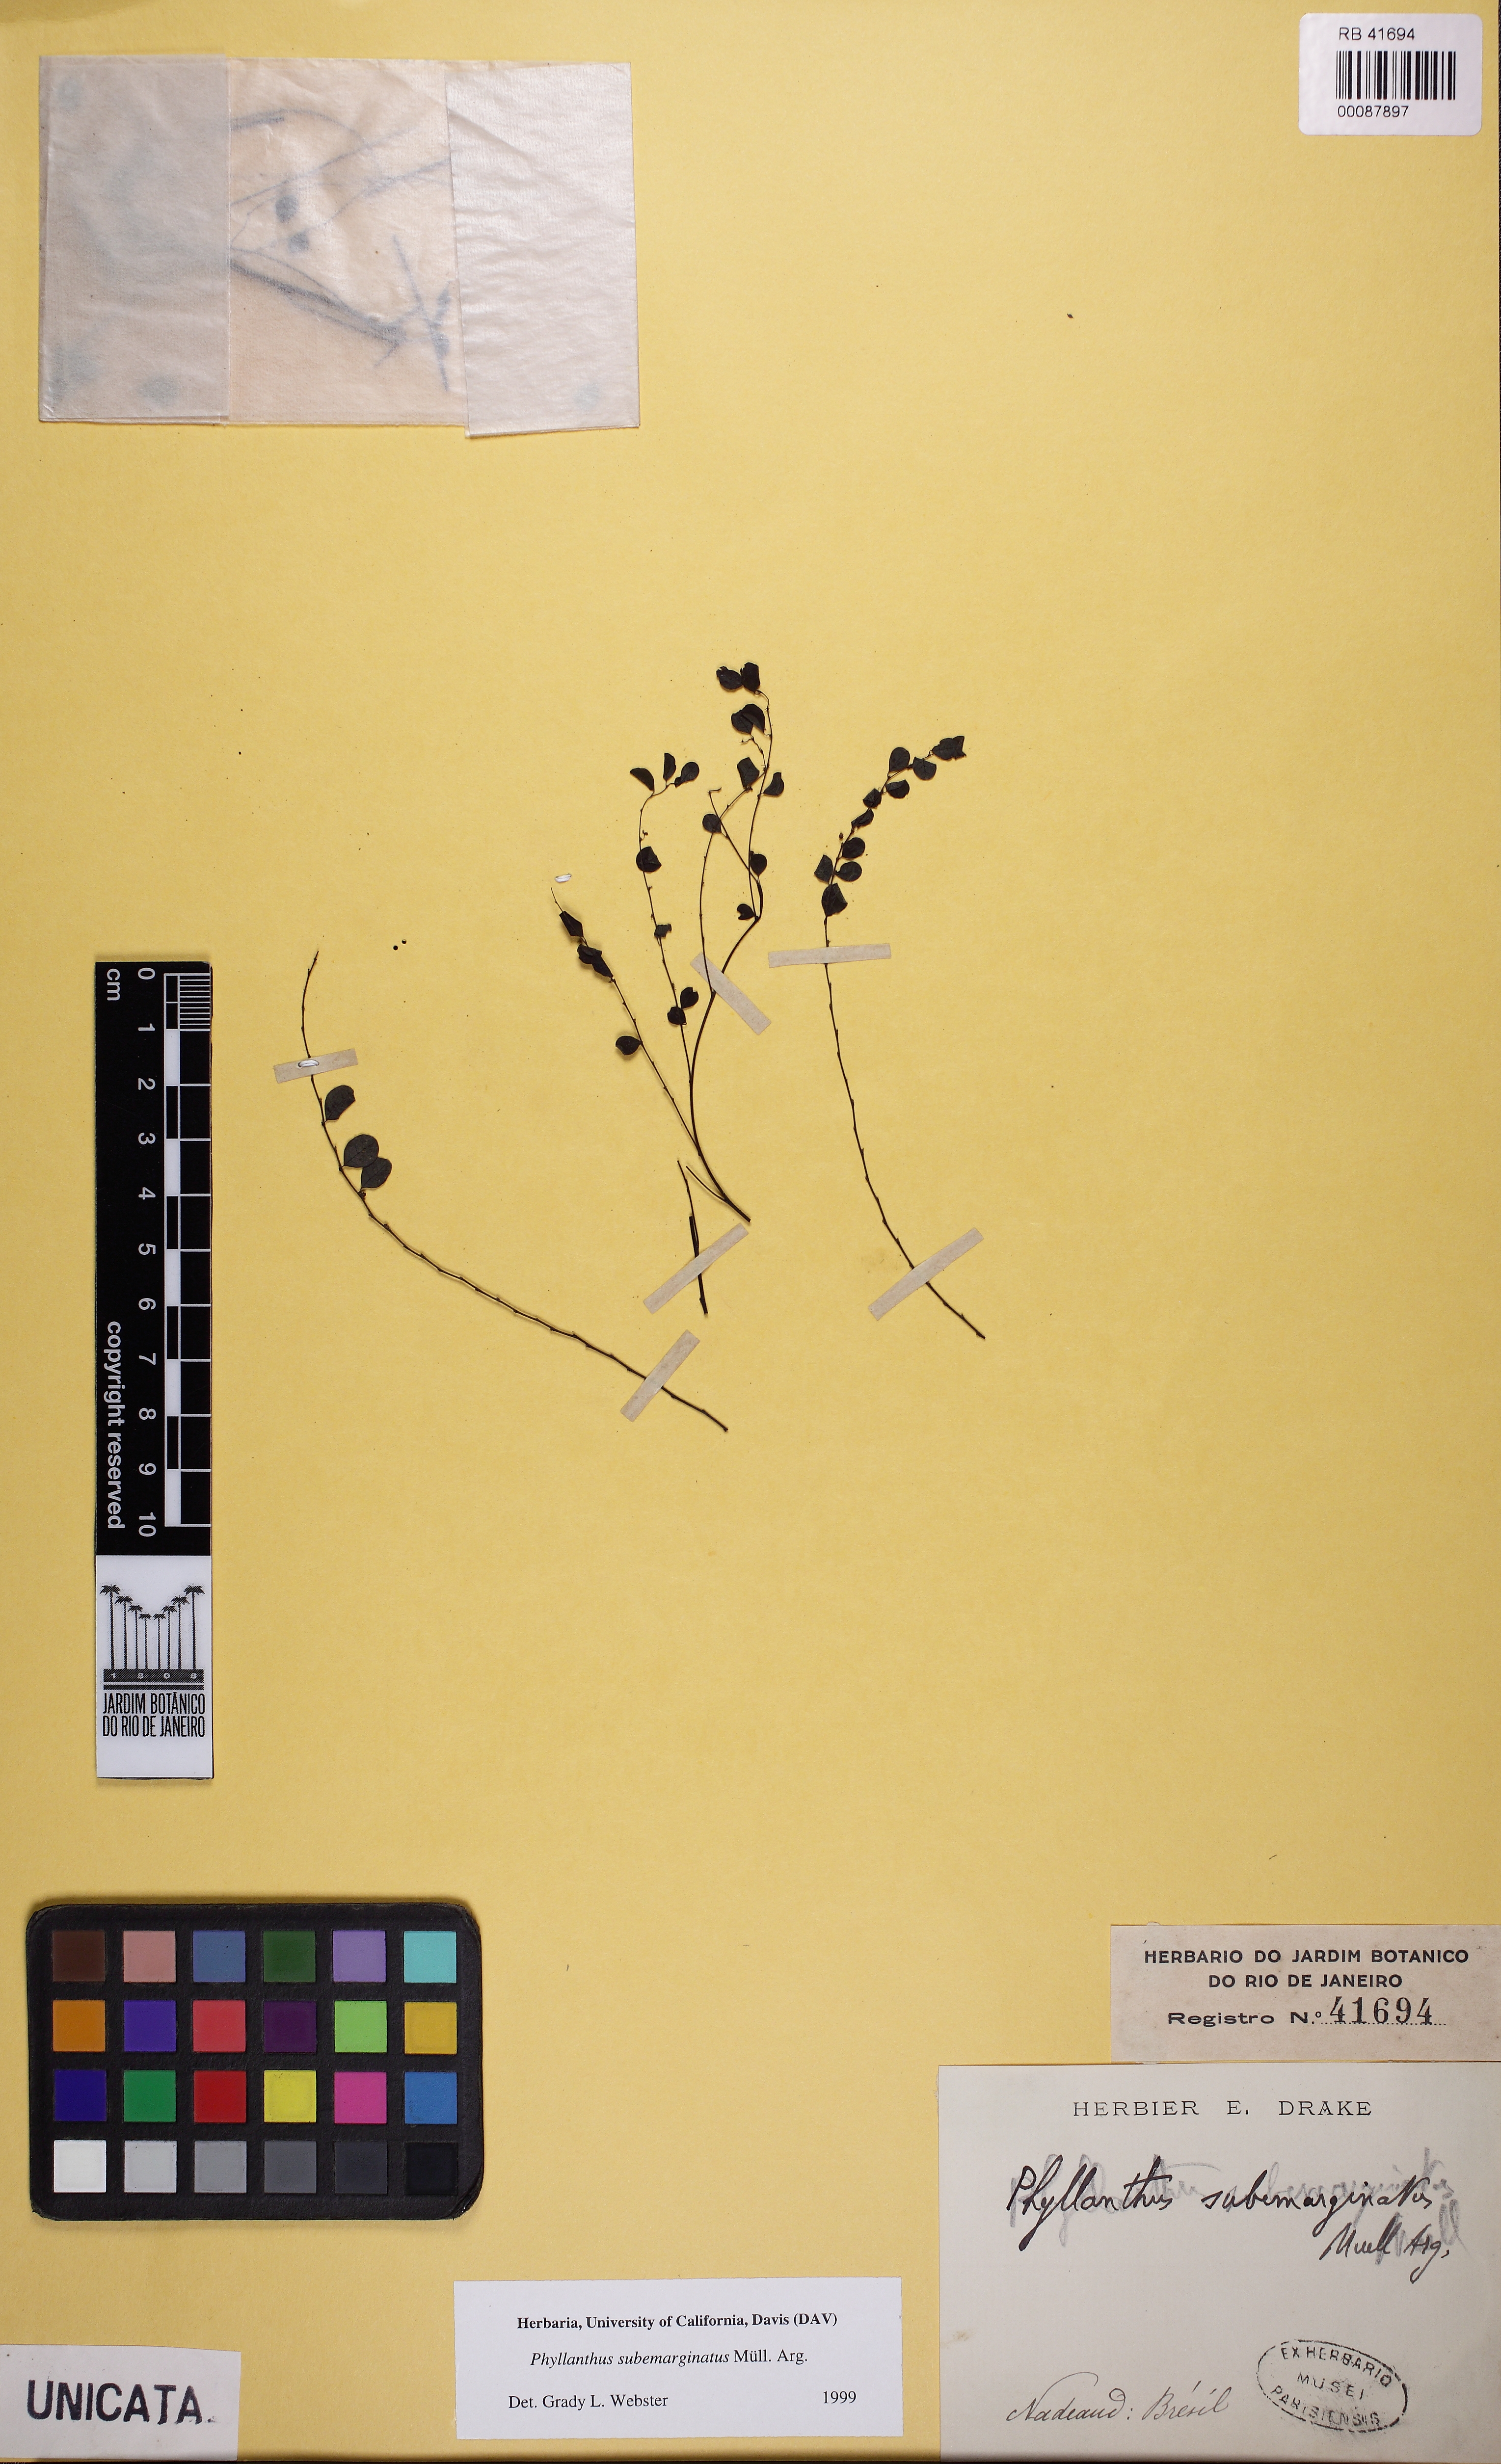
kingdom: Plantae
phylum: Tracheophyta
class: Magnoliopsida
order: Malpighiales
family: Phyllanthaceae
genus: Phyllanthus
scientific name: Phyllanthus subemarginatus
